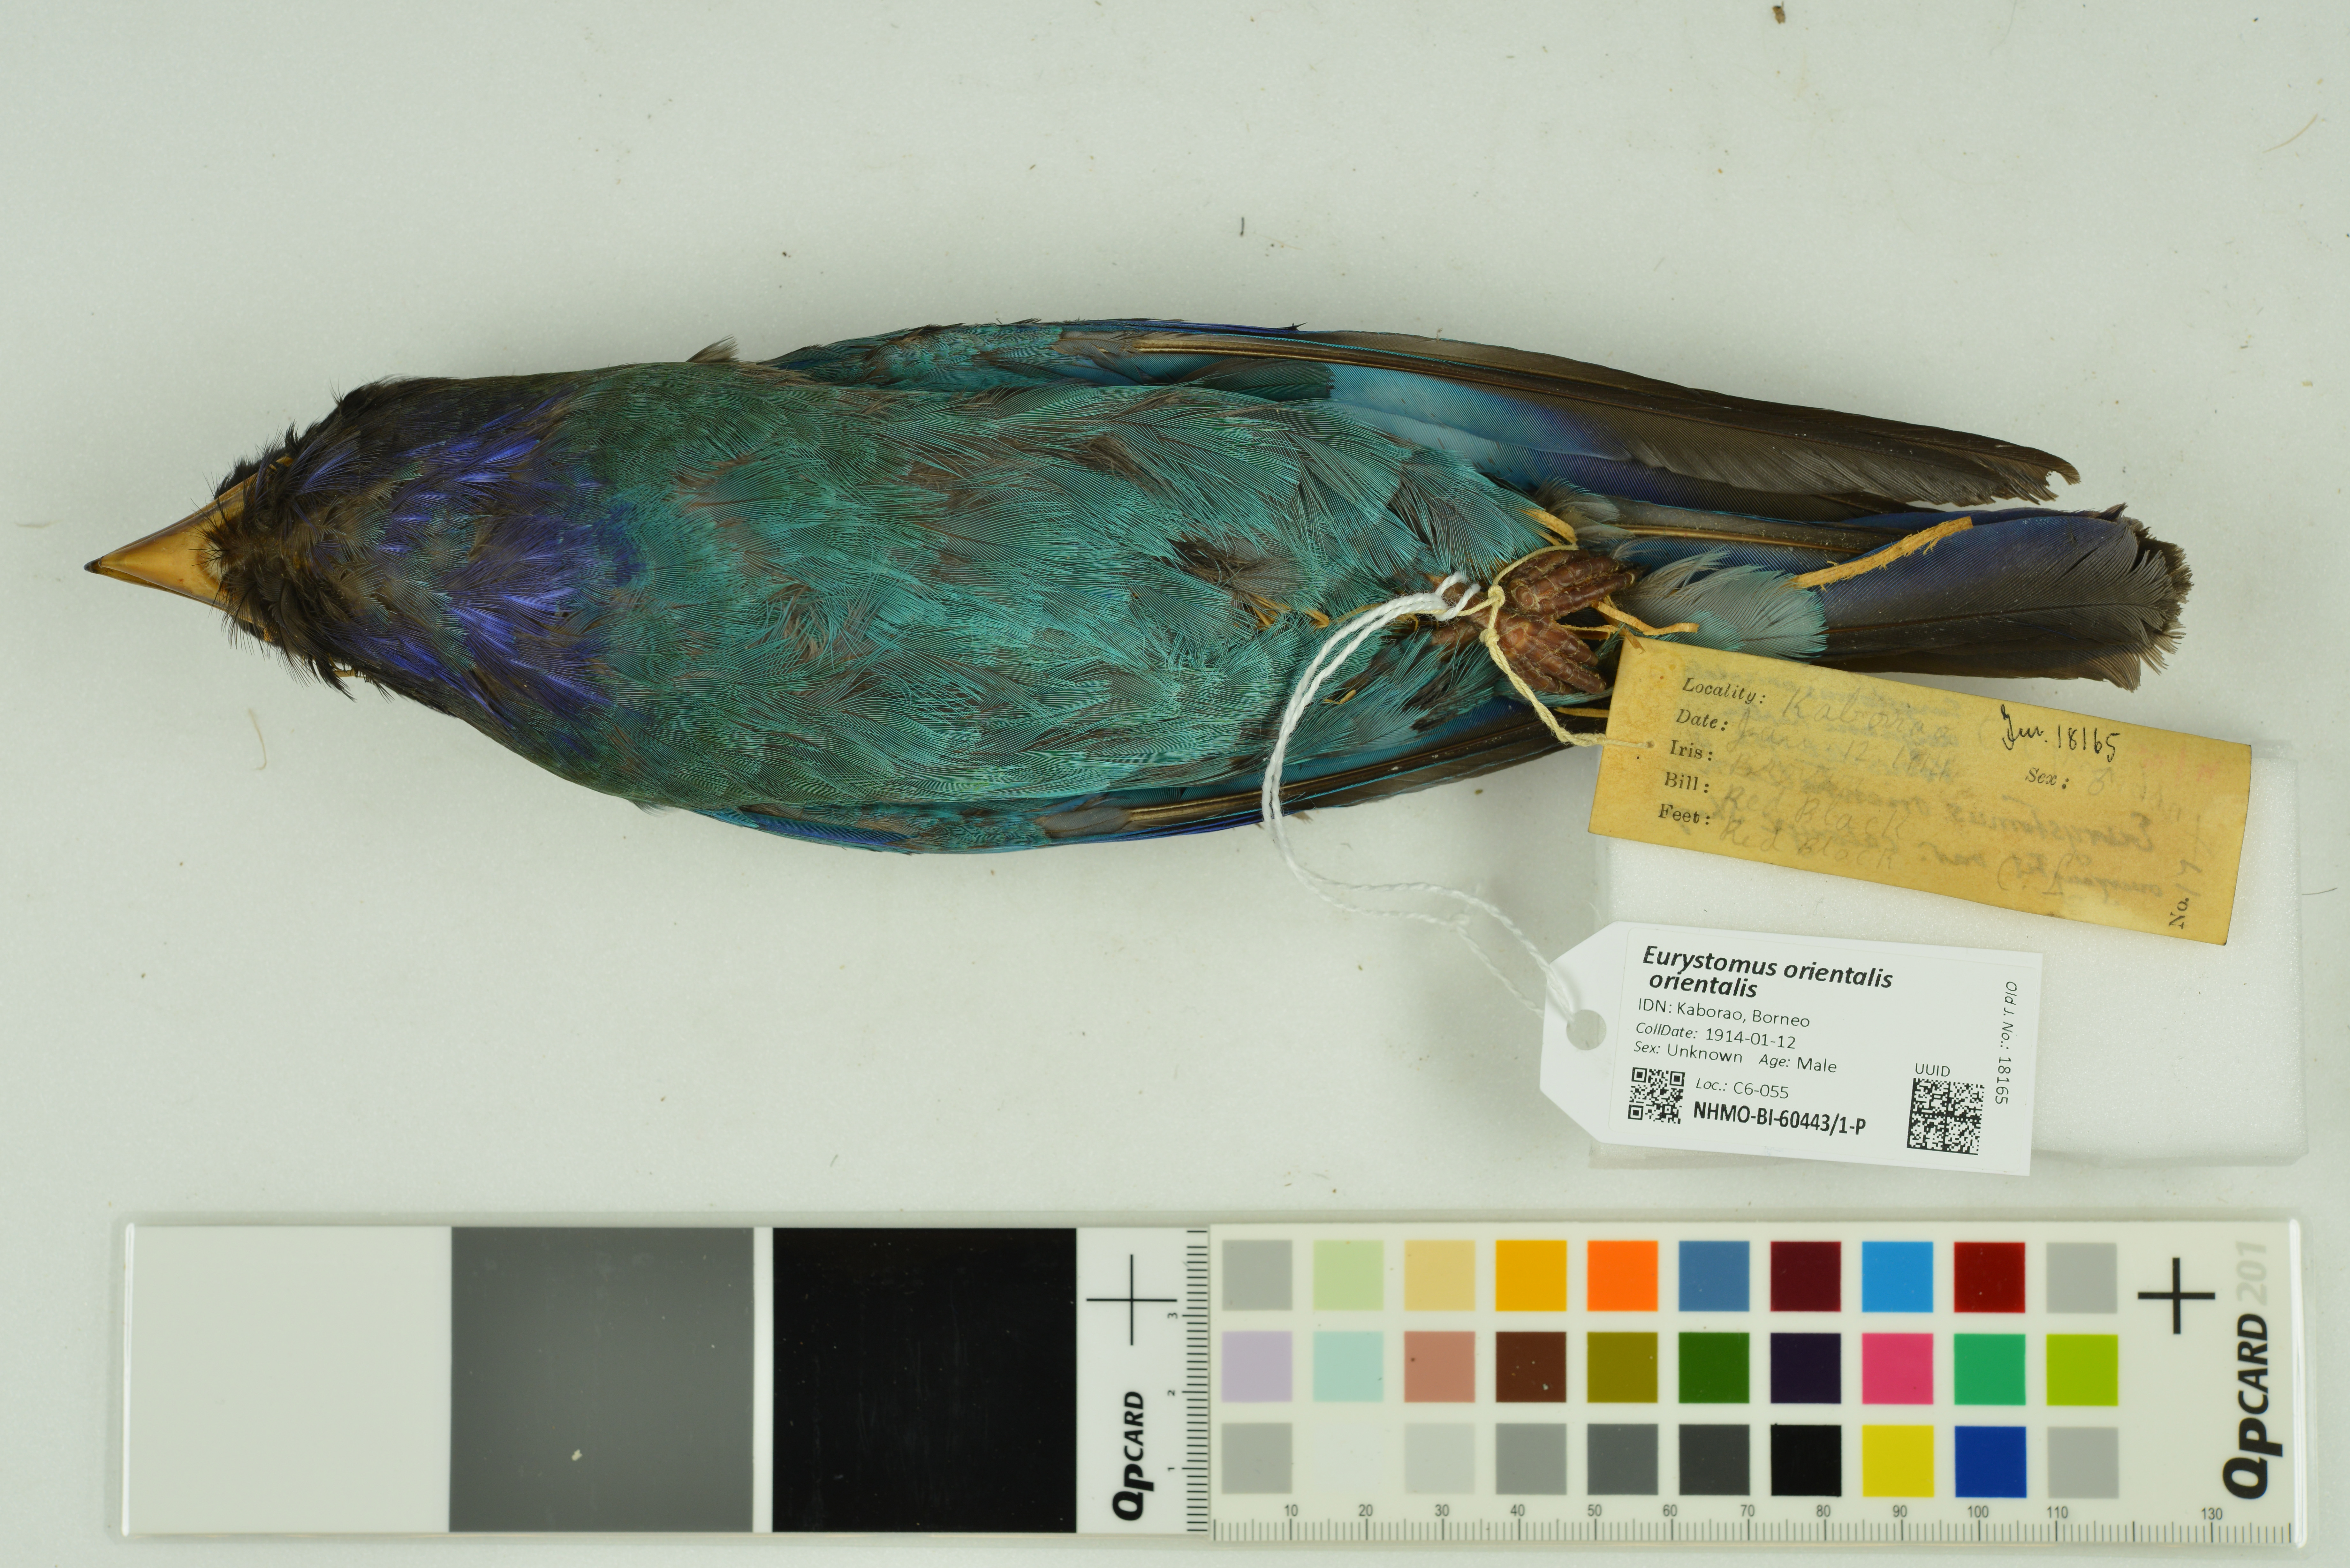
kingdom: Animalia
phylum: Chordata
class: Aves
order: Coraciiformes
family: Coraciidae
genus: Eurystomus
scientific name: Eurystomus orientalis
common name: Oriental dollarbird
